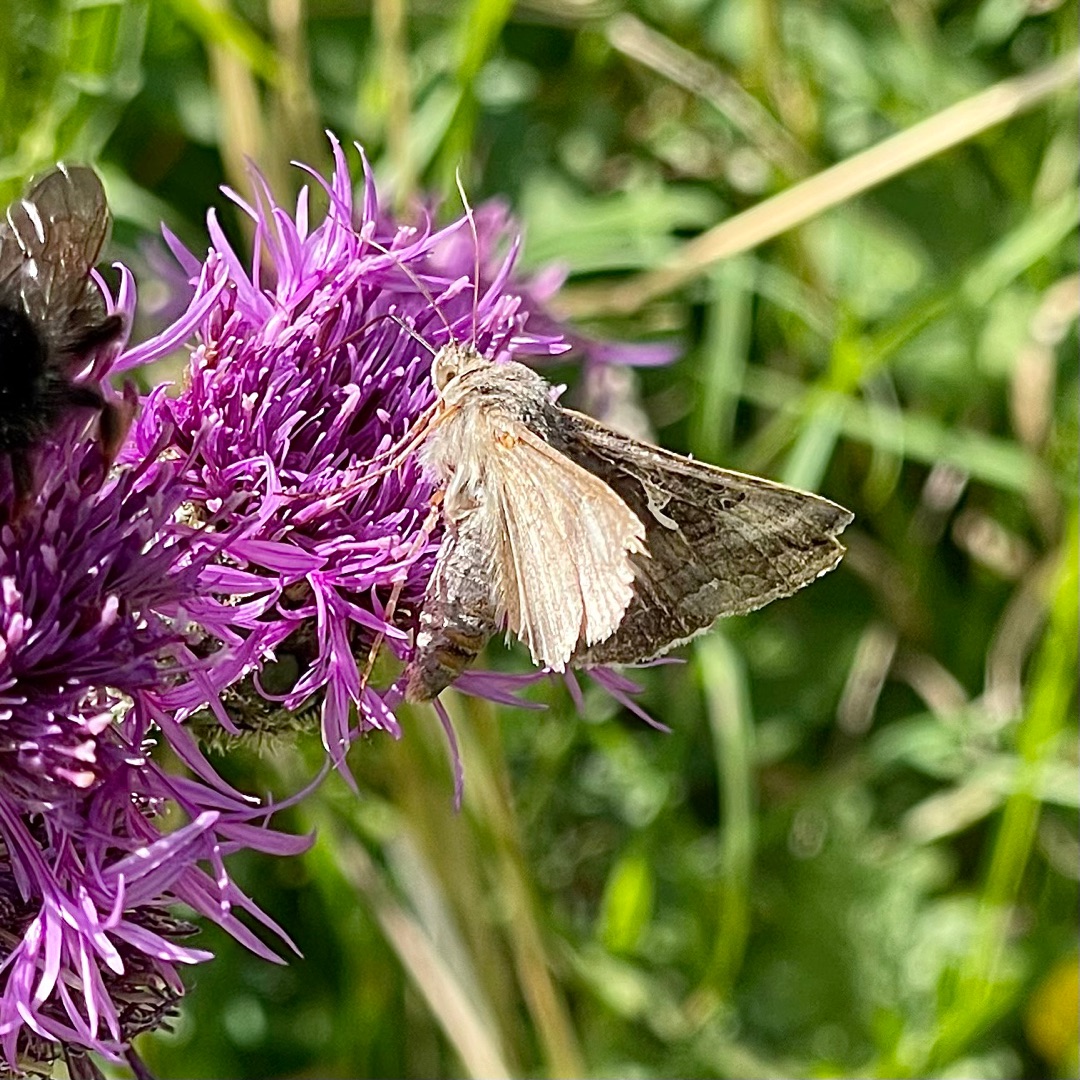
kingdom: Animalia
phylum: Arthropoda
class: Insecta
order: Lepidoptera
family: Noctuidae
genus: Autographa
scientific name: Autographa gamma
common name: Gammaugle
